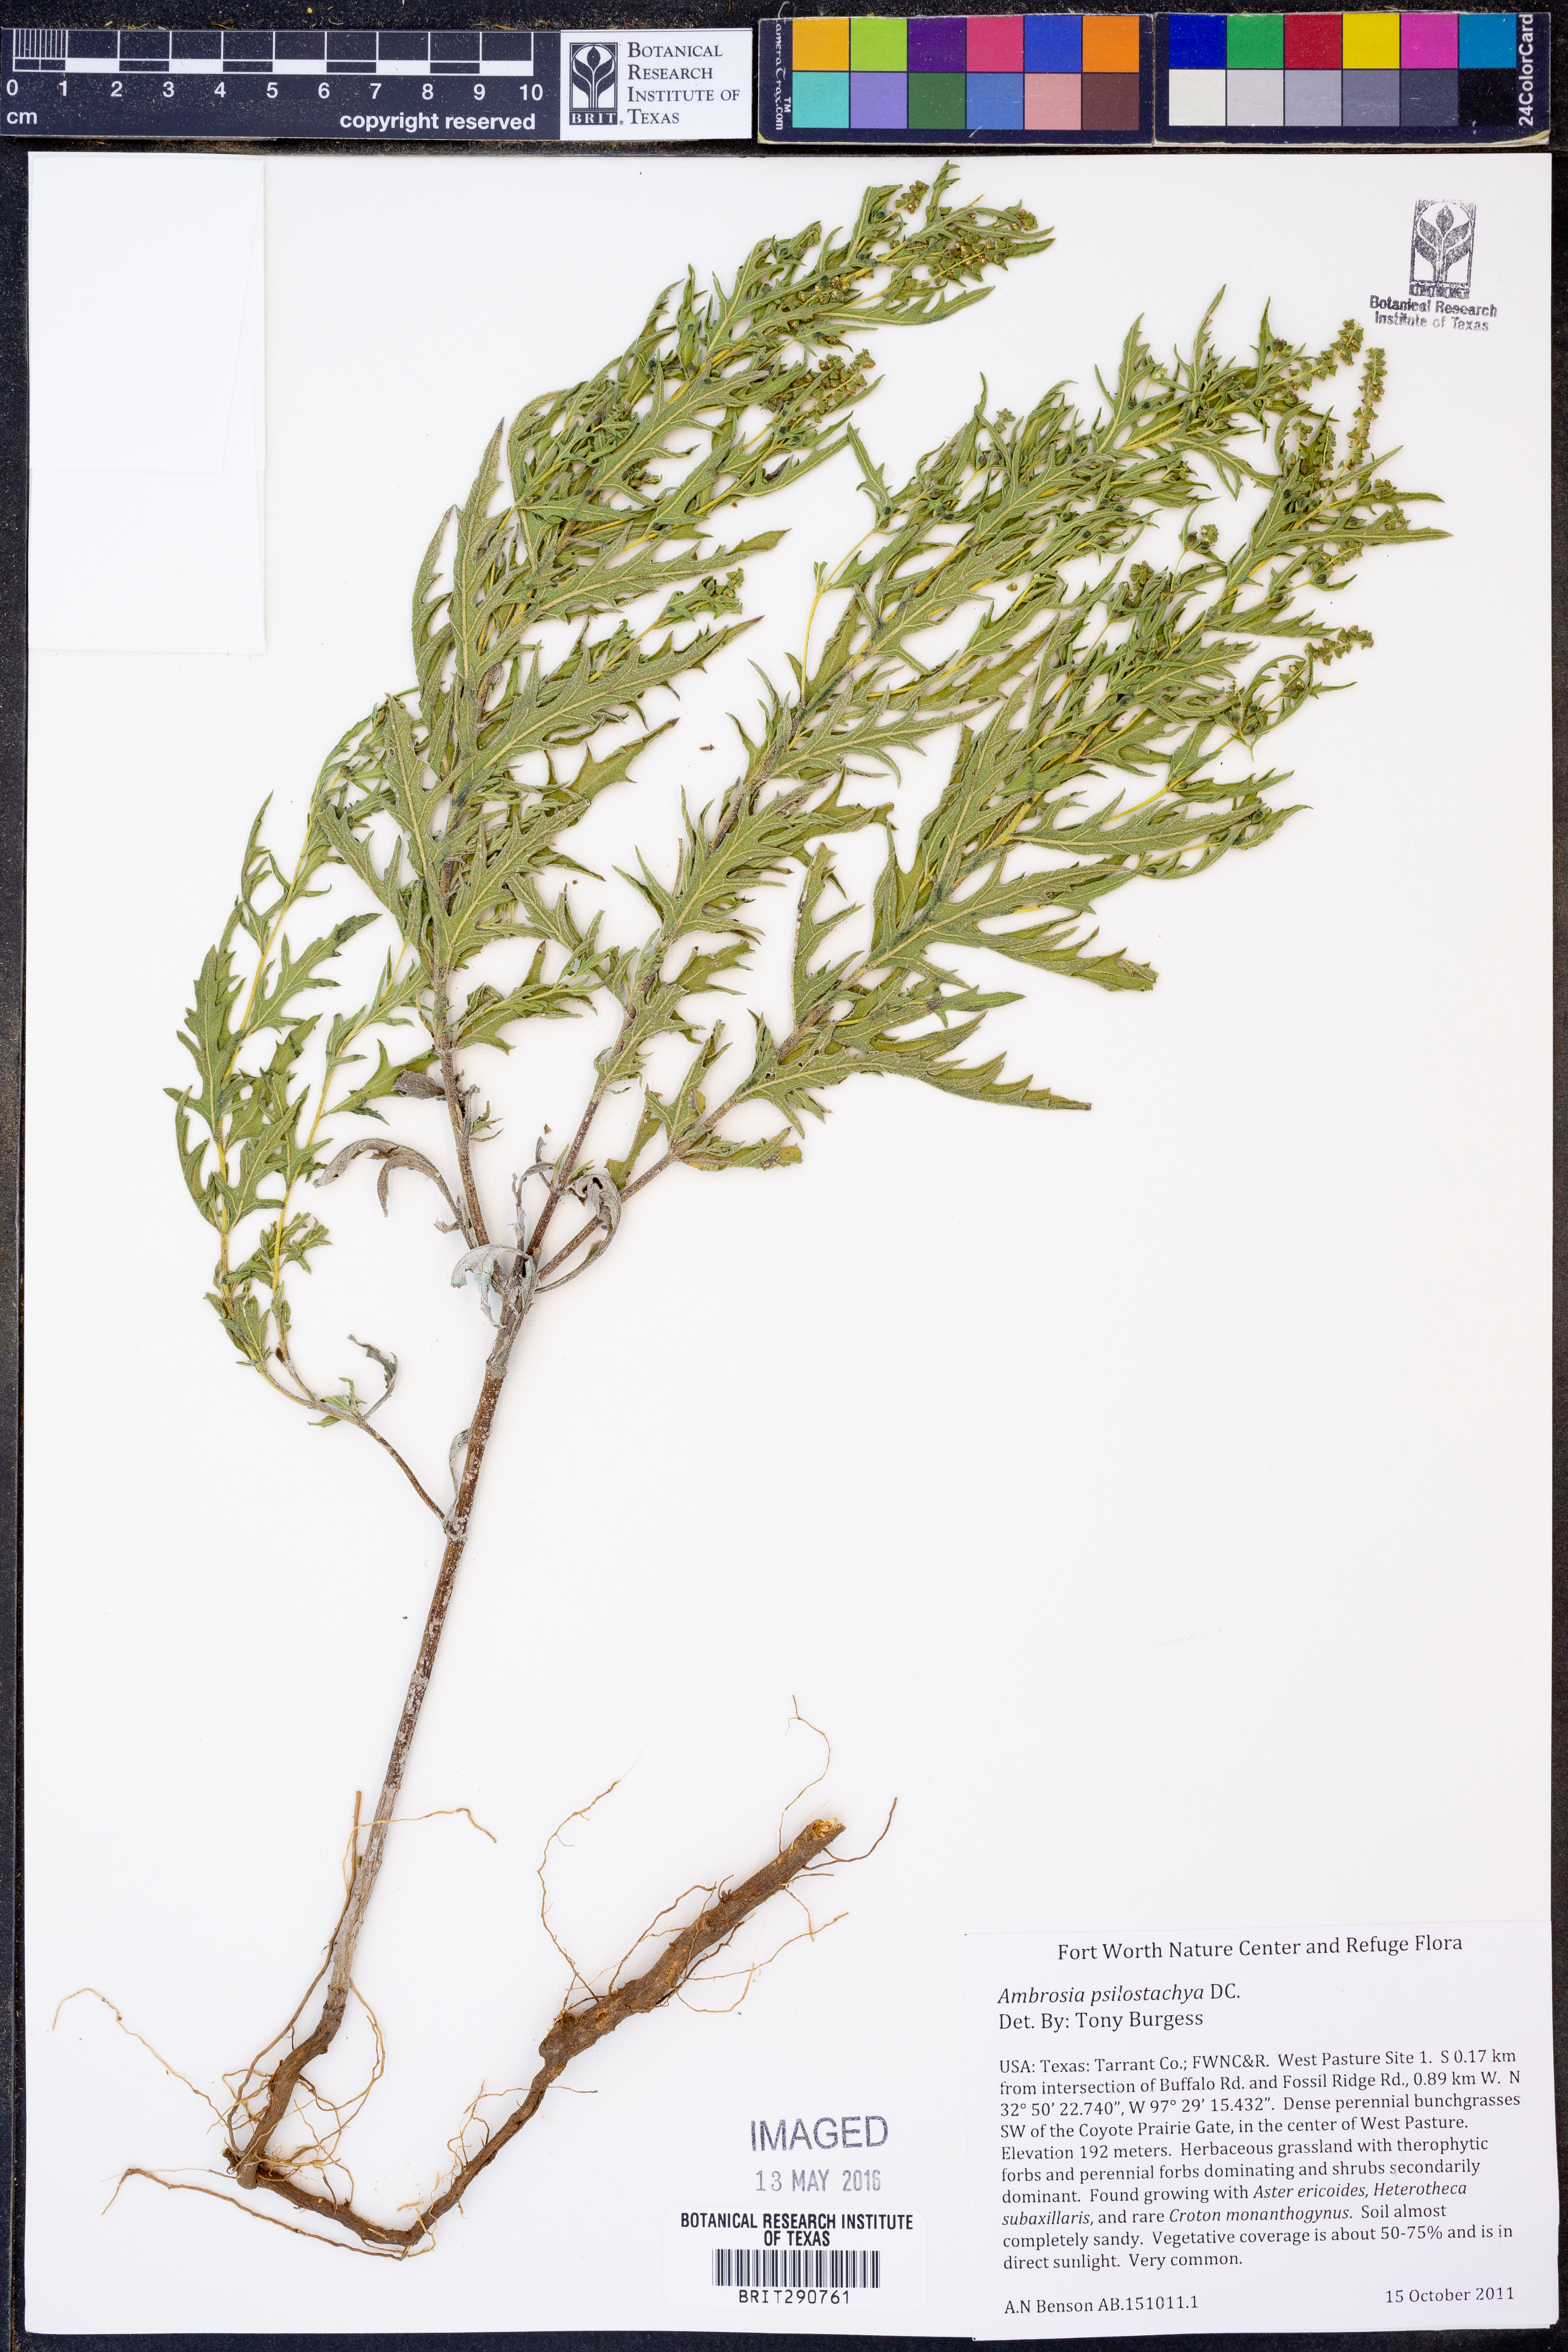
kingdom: Plantae
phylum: Tracheophyta
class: Magnoliopsida
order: Asterales
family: Asteraceae
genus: Ambrosia
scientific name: Ambrosia psilostachya
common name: Perennial ragweed
